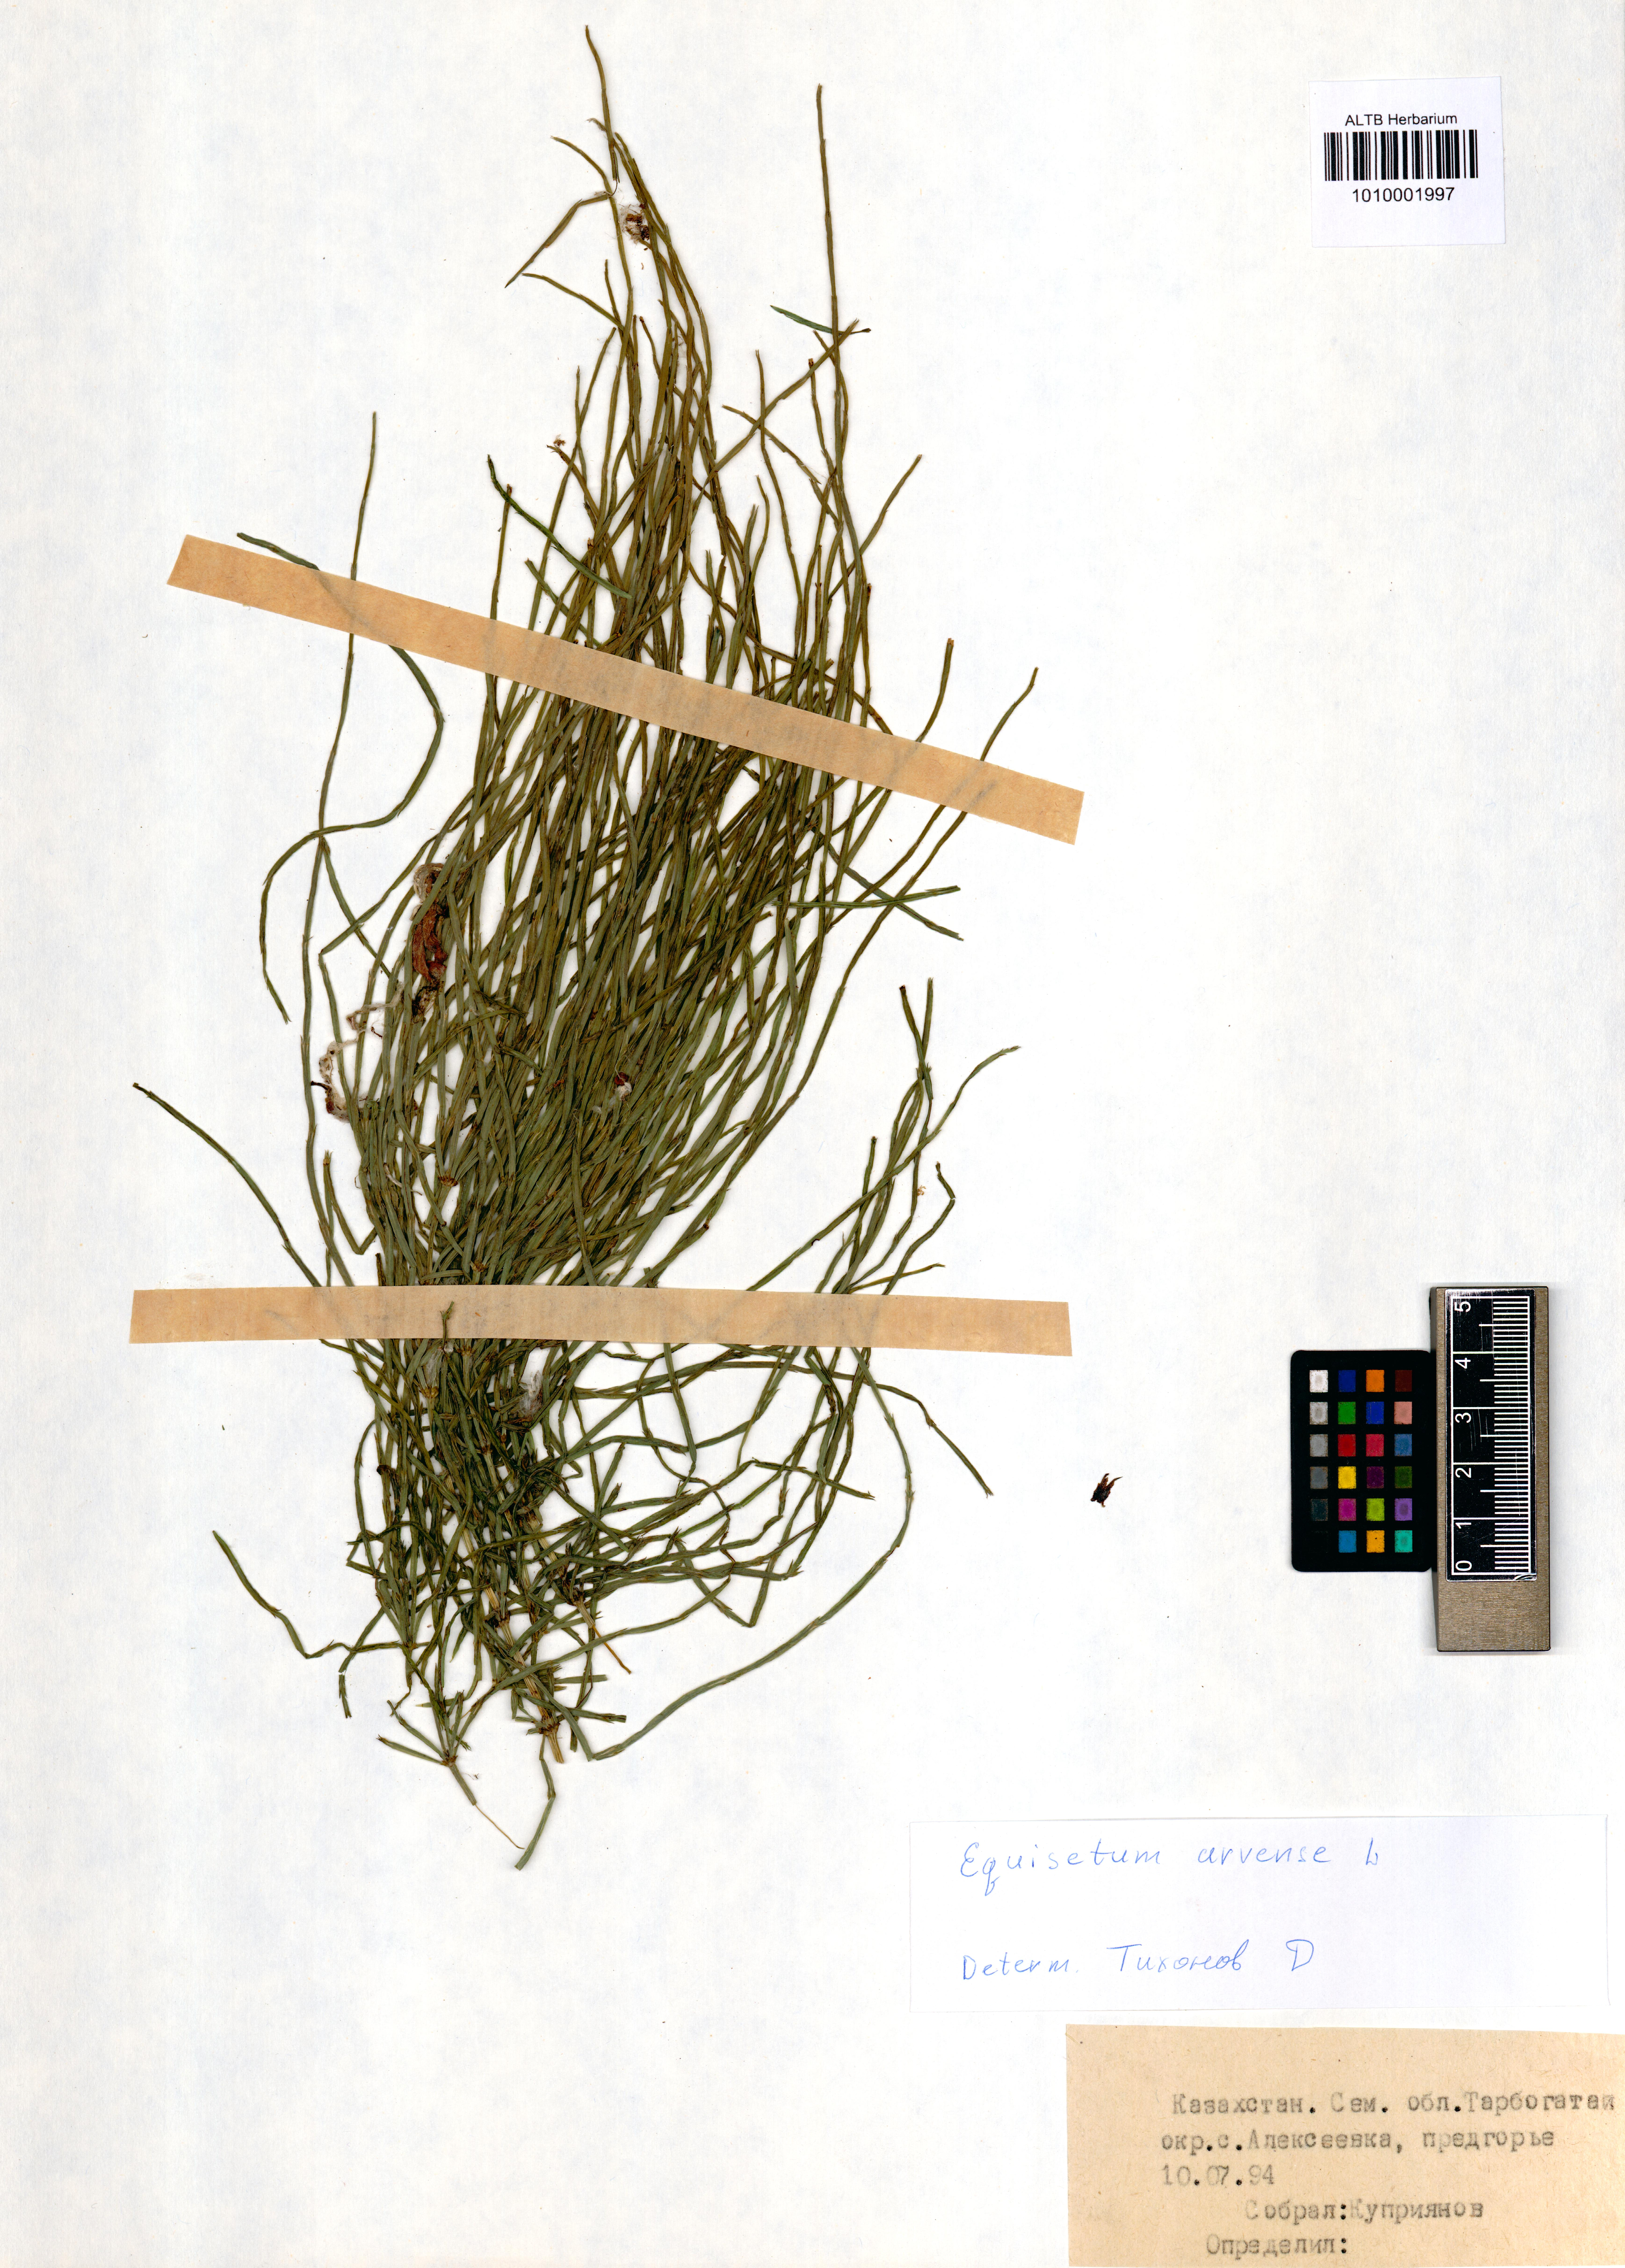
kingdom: Plantae
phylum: Tracheophyta
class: Polypodiopsida
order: Equisetales
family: Equisetaceae
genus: Equisetum
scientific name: Equisetum arvense
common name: Field horsetail
